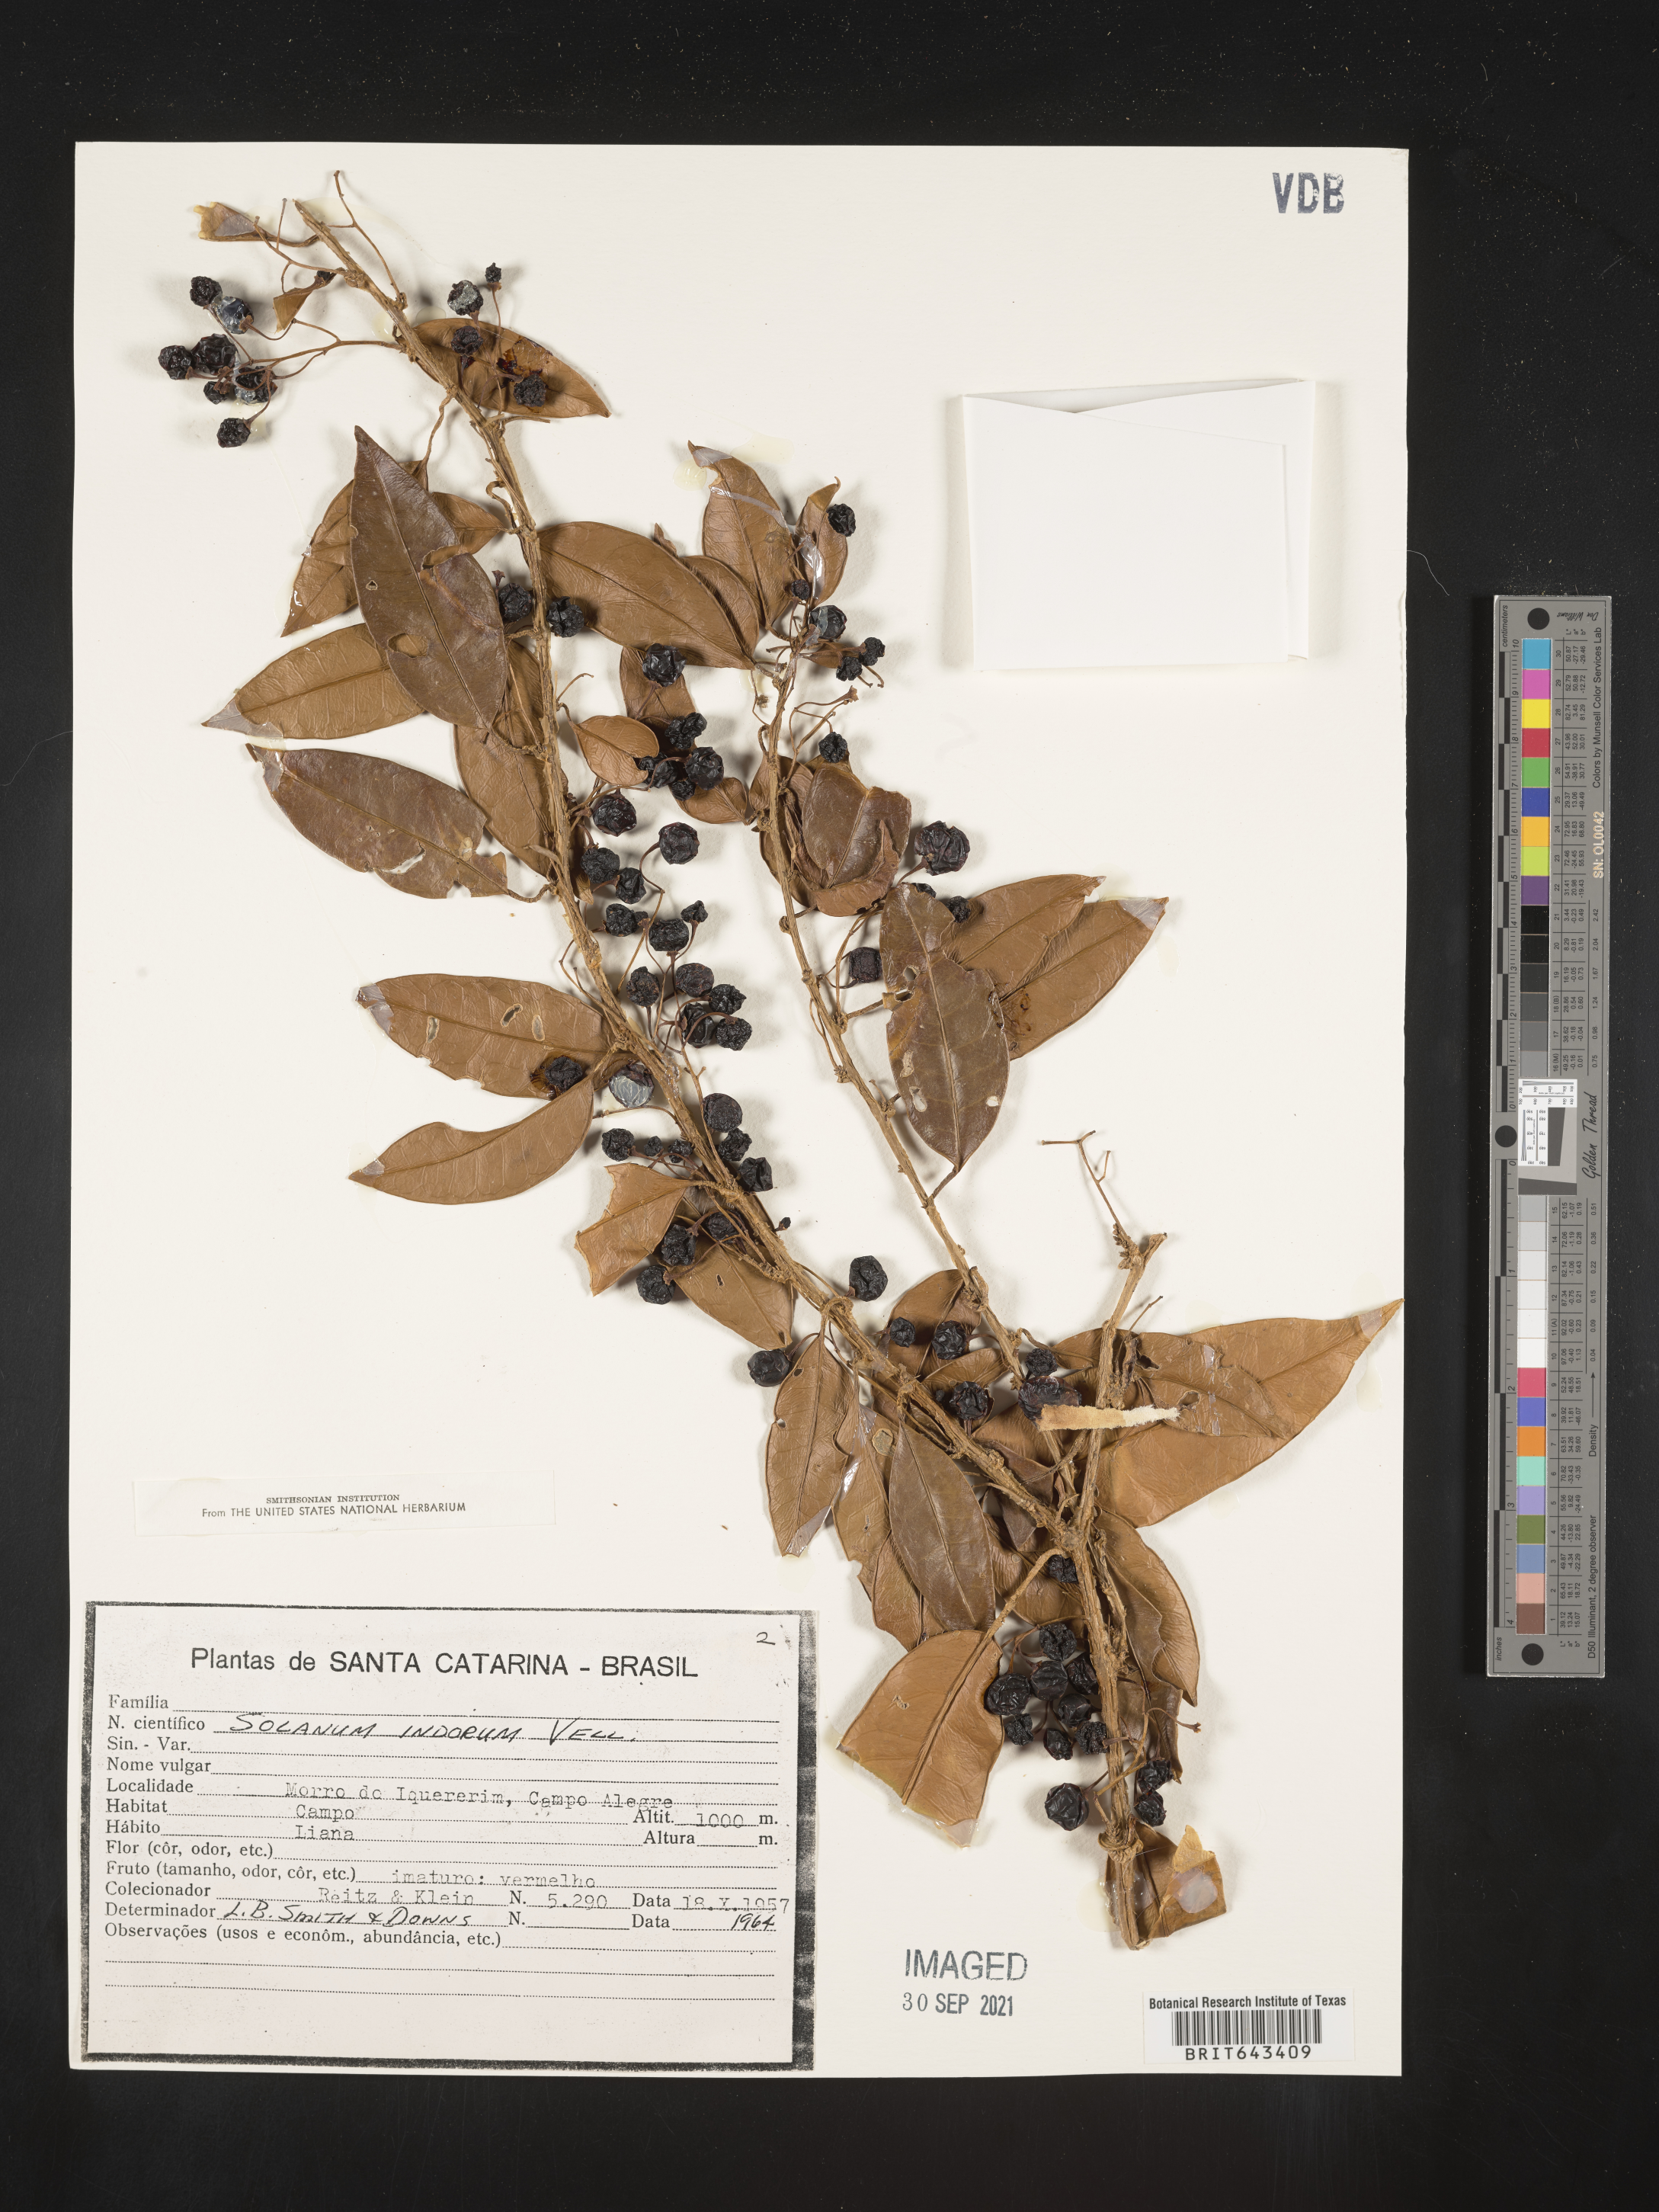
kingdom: Plantae
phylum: Tracheophyta
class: Magnoliopsida
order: Solanales
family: Solanaceae
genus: Solanum
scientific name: Solanum
